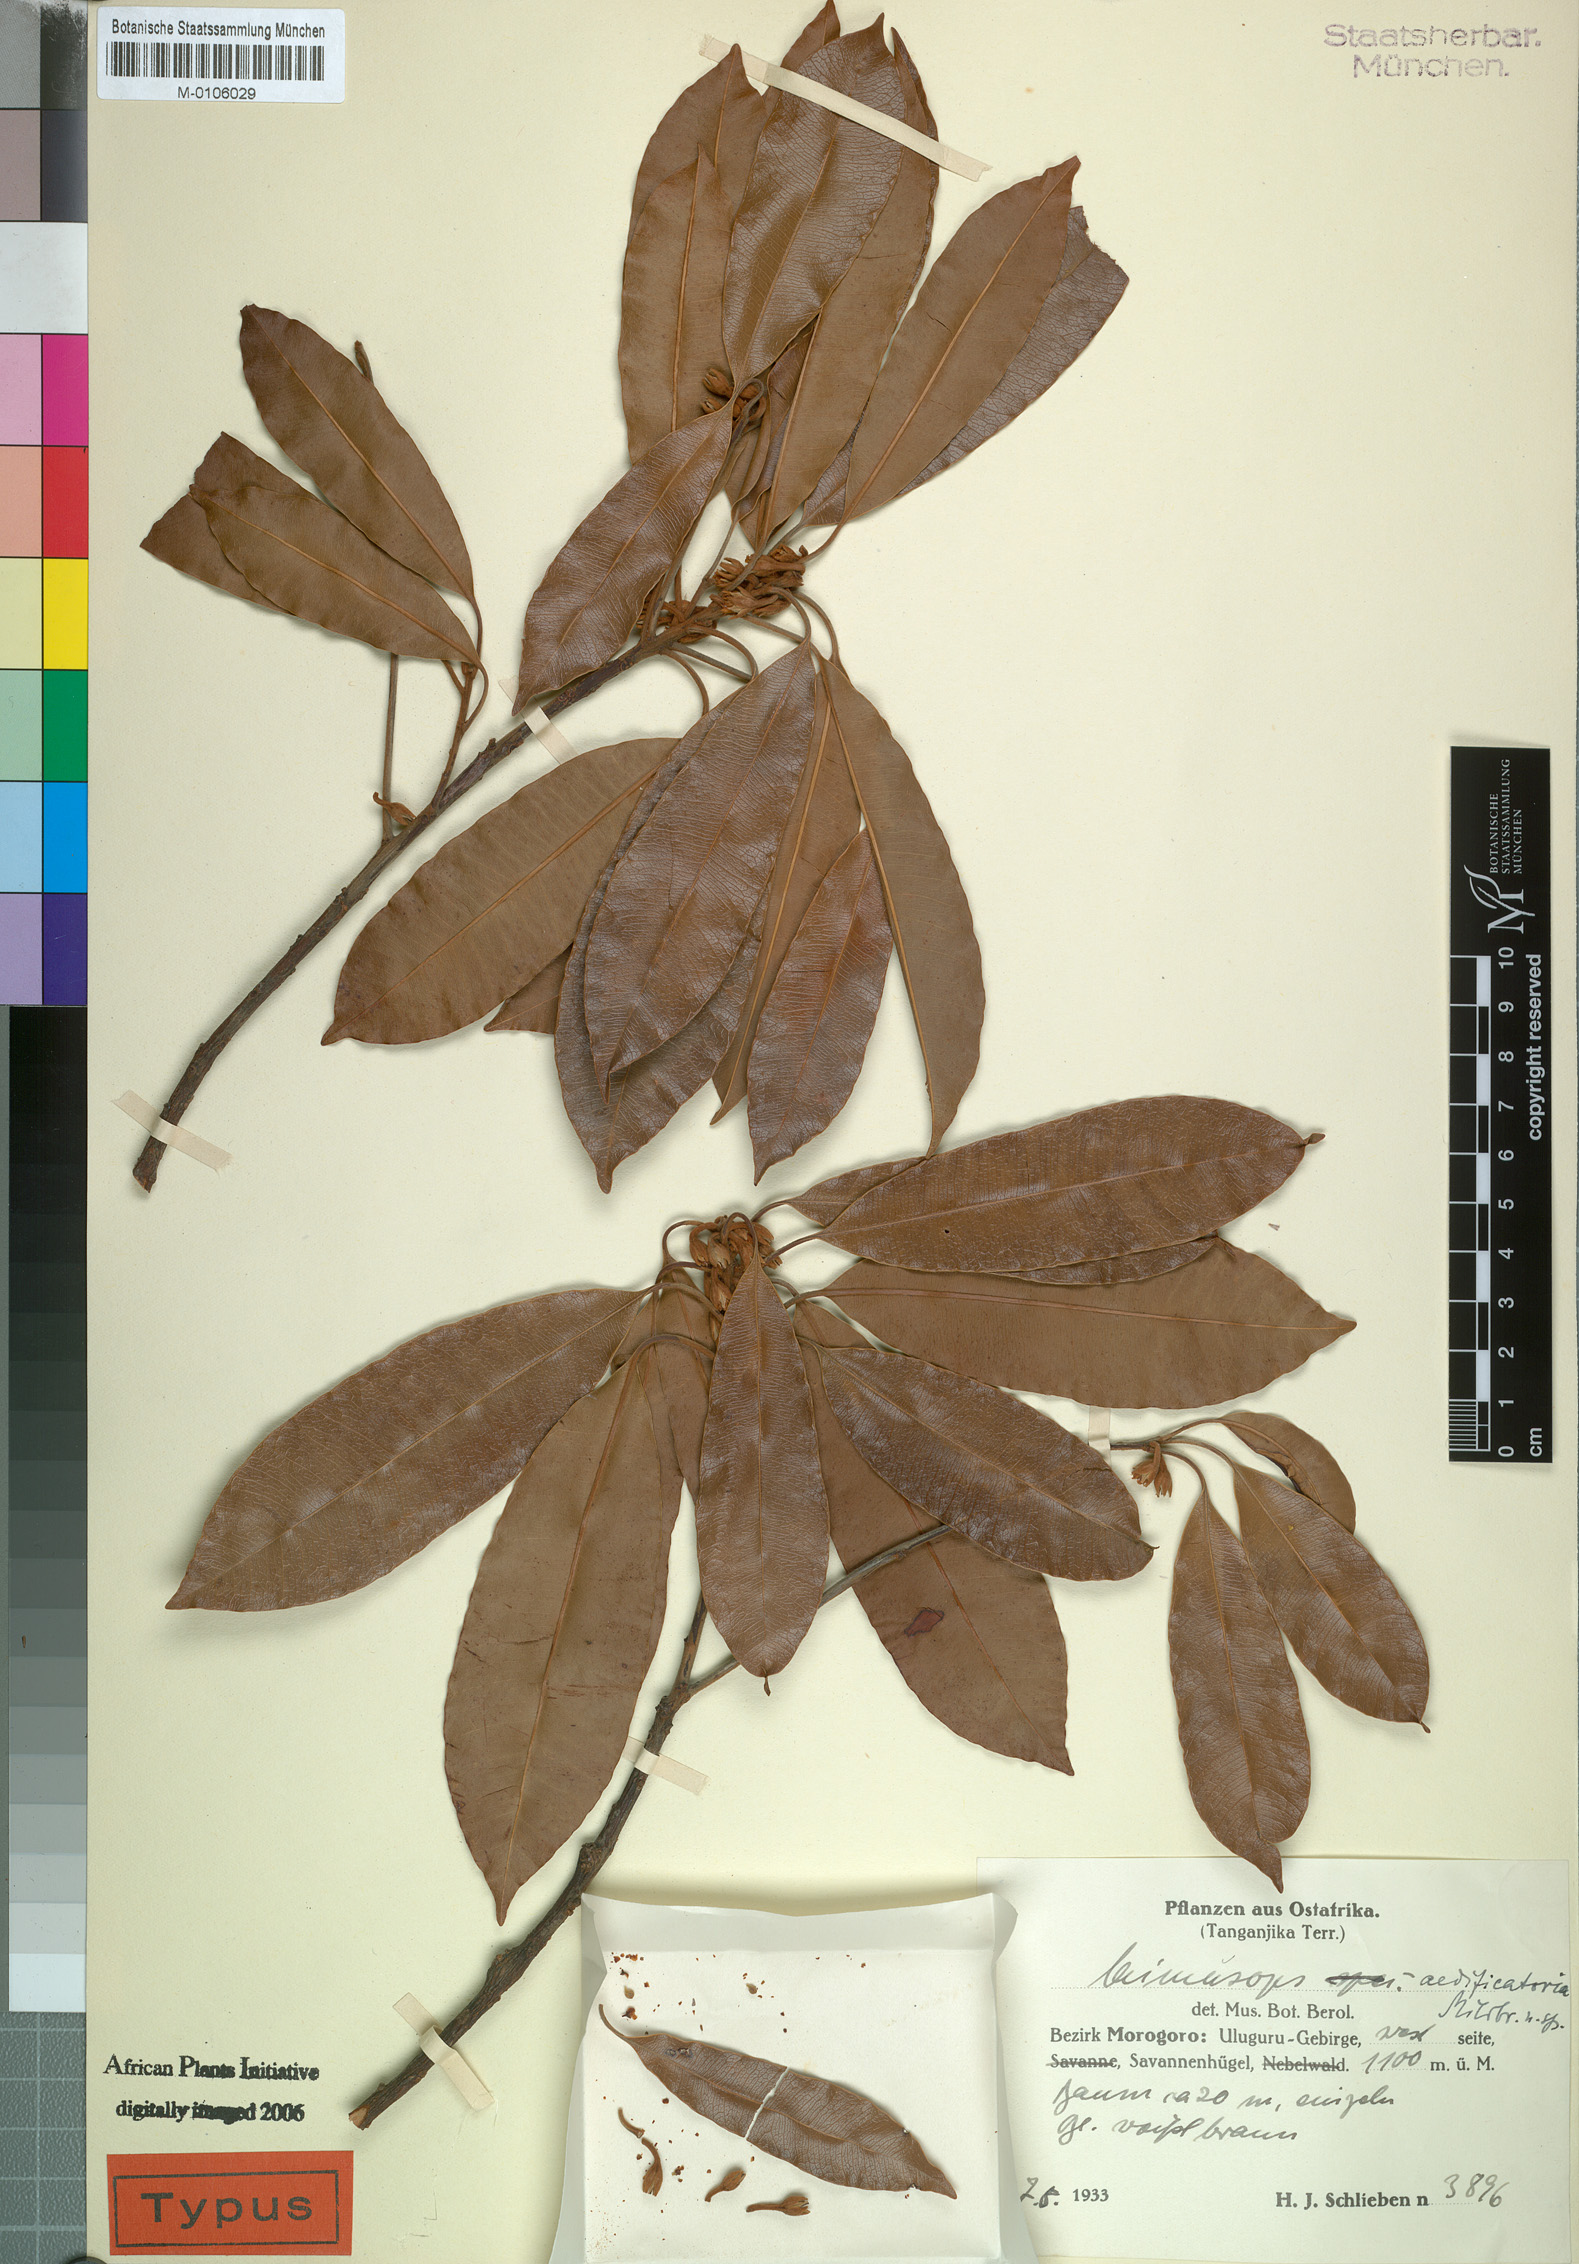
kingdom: Plantae
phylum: Tracheophyta
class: Magnoliopsida
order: Ericales
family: Sapotaceae
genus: Mimusops
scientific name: Mimusops aedificatoria
